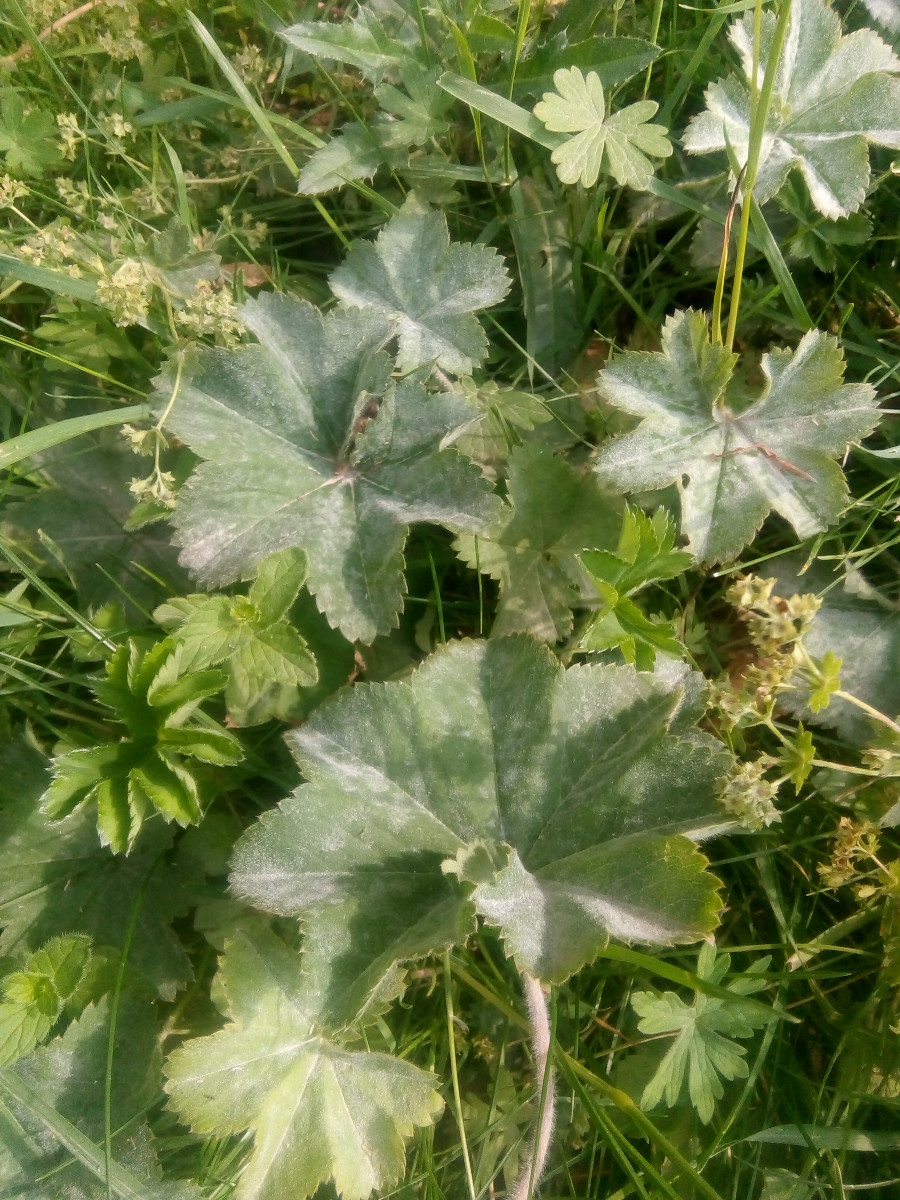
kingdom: Fungi
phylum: Ascomycota
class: Leotiomycetes
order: Helotiales
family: Erysiphaceae
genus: Podosphaera
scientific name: Podosphaera aphanis
